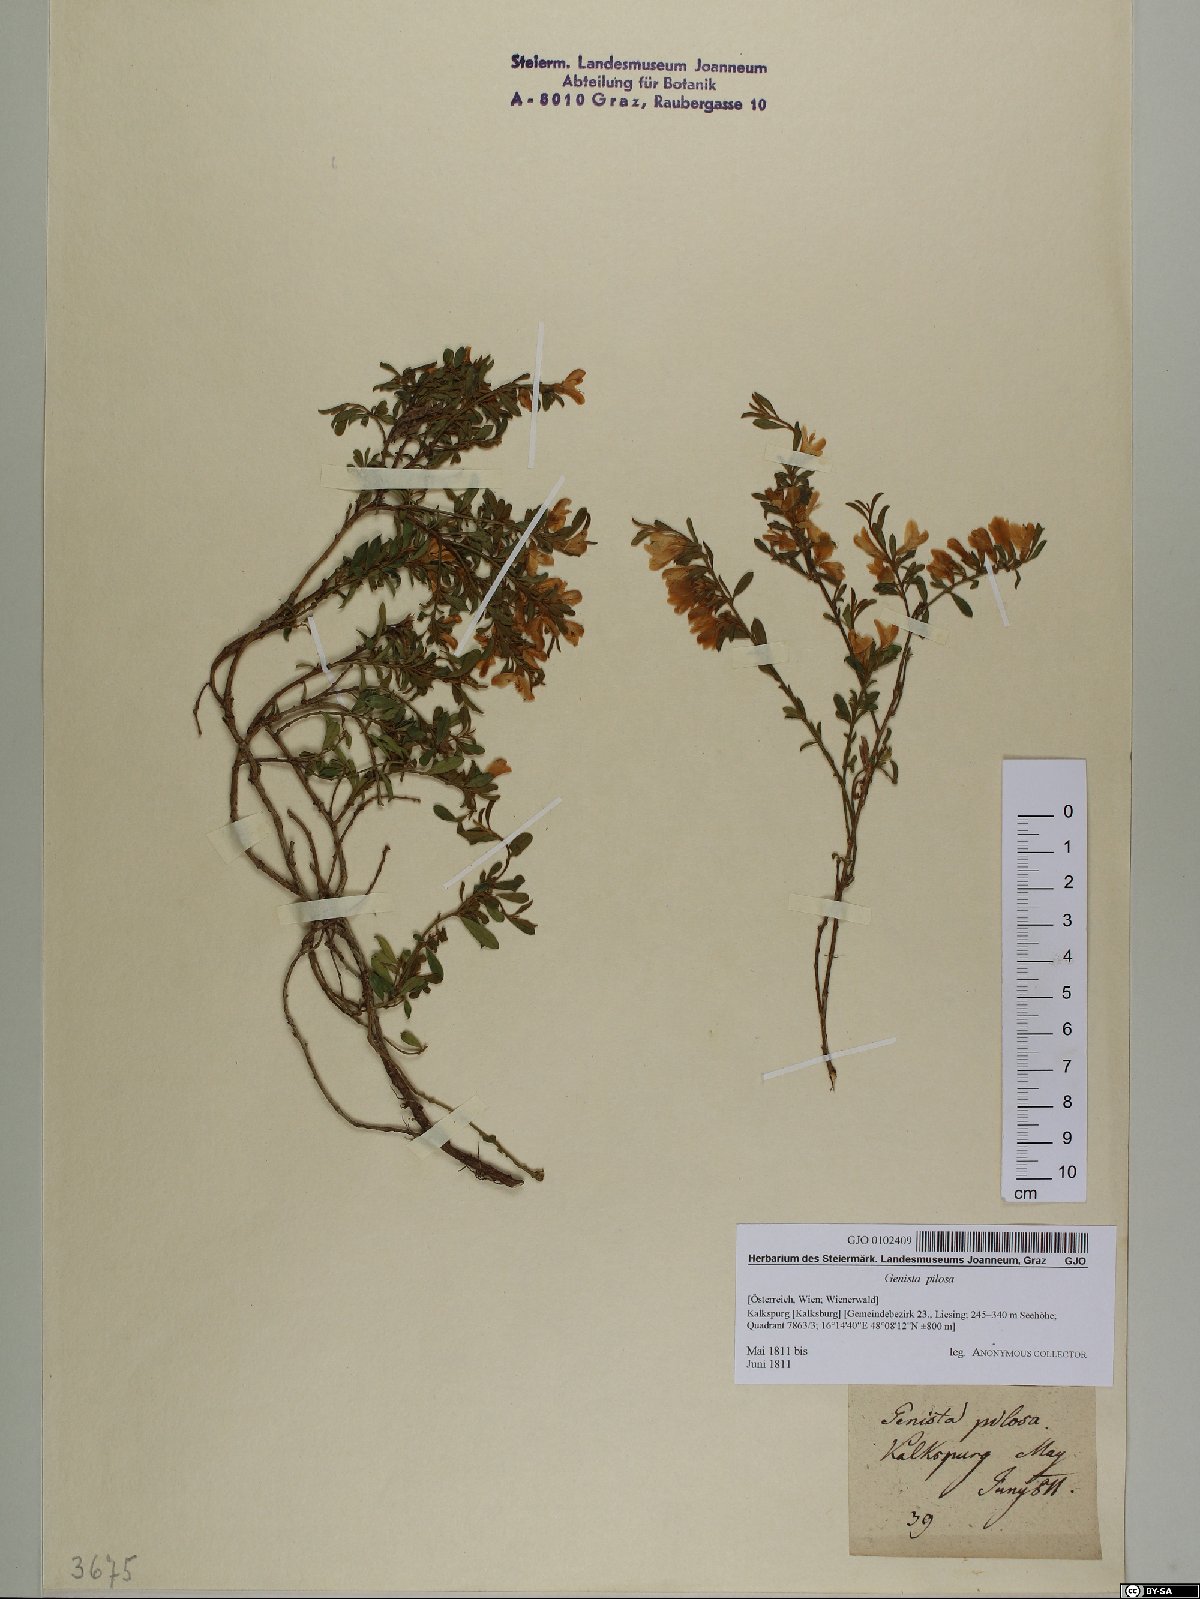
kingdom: Plantae
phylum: Tracheophyta
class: Magnoliopsida
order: Fabales
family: Fabaceae
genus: Genista
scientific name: Genista pilosa
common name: Hairy greenweed
